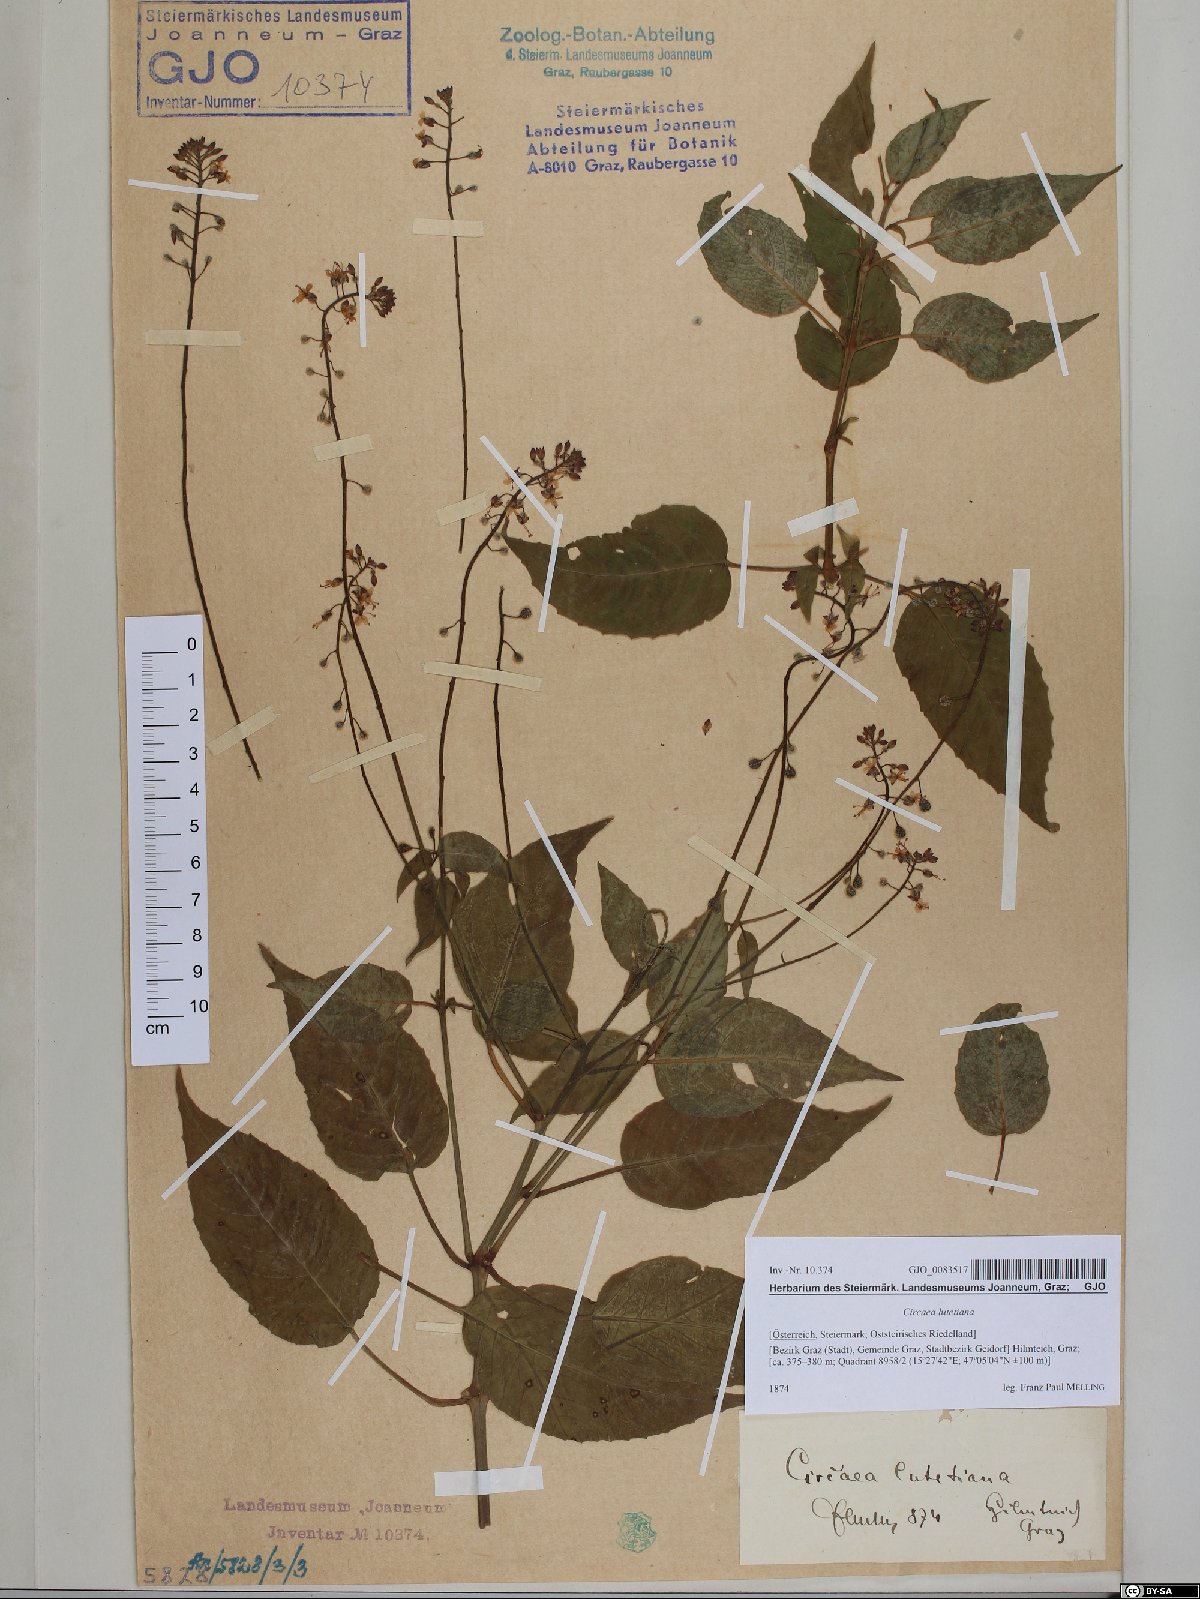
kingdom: Plantae
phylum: Tracheophyta
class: Magnoliopsida
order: Myrtales
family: Onagraceae
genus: Circaea
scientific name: Circaea lutetiana
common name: Enchanter's-nightshade
